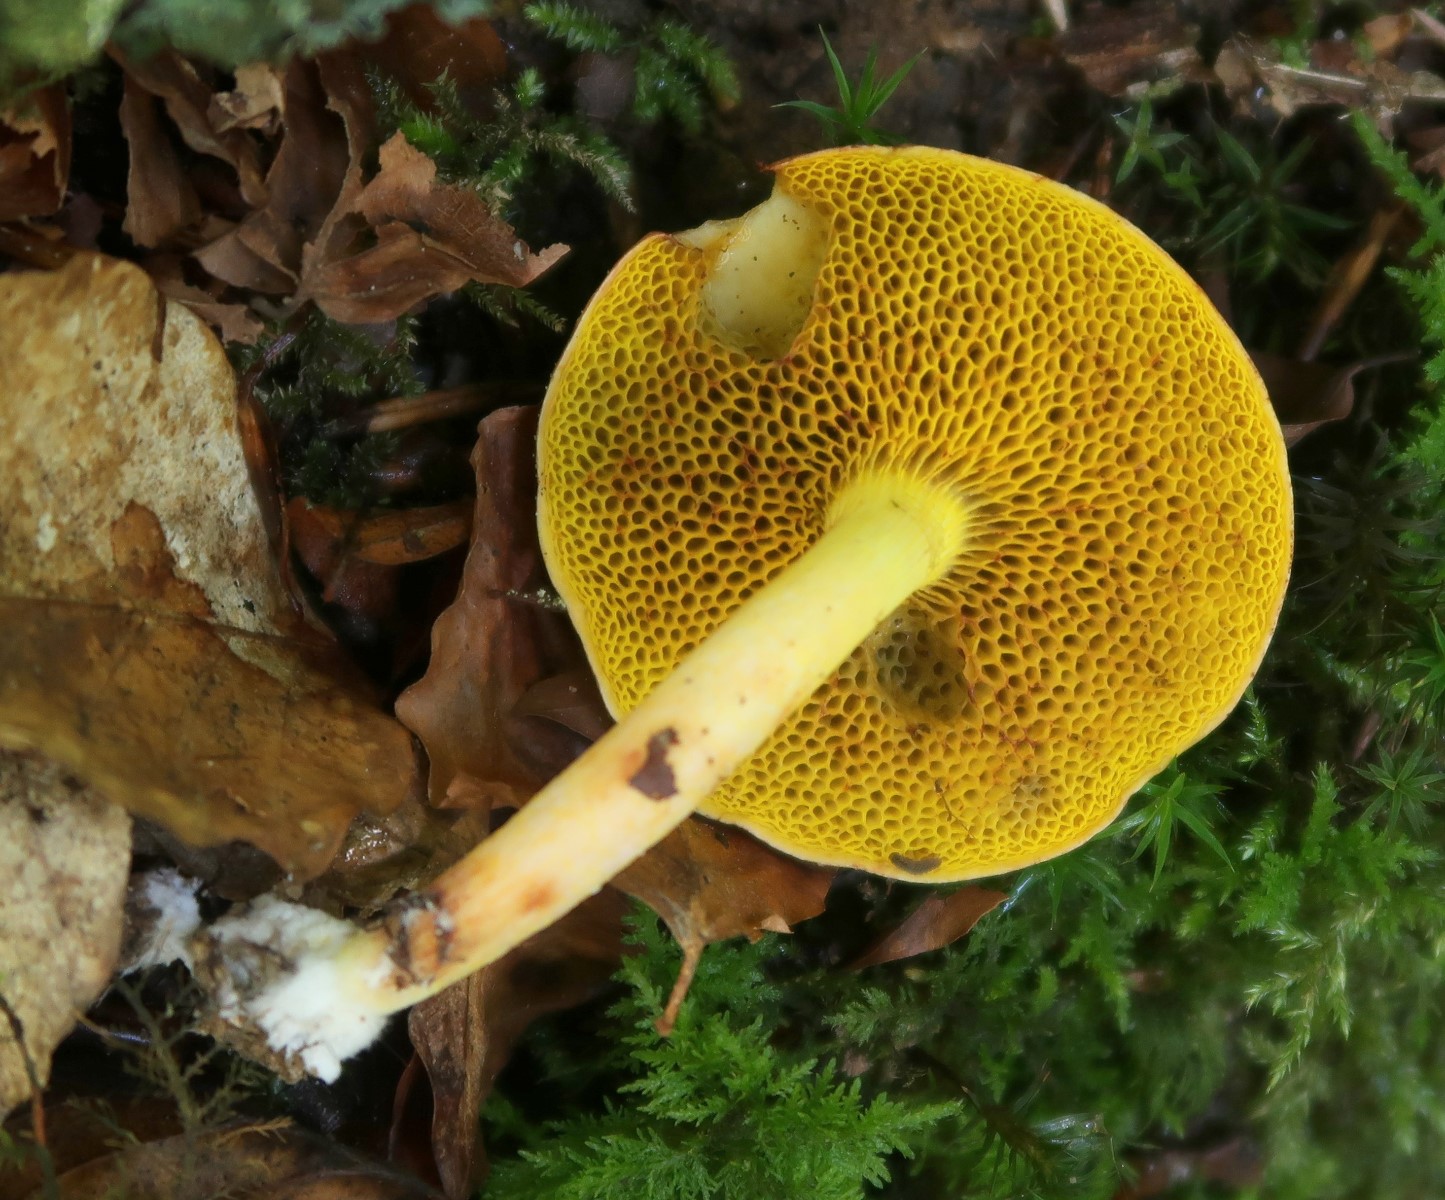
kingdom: Fungi
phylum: Basidiomycota
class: Agaricomycetes
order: Boletales
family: Boletaceae
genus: Aureoboletus
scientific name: Aureoboletus gentilis
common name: guldrørhat
